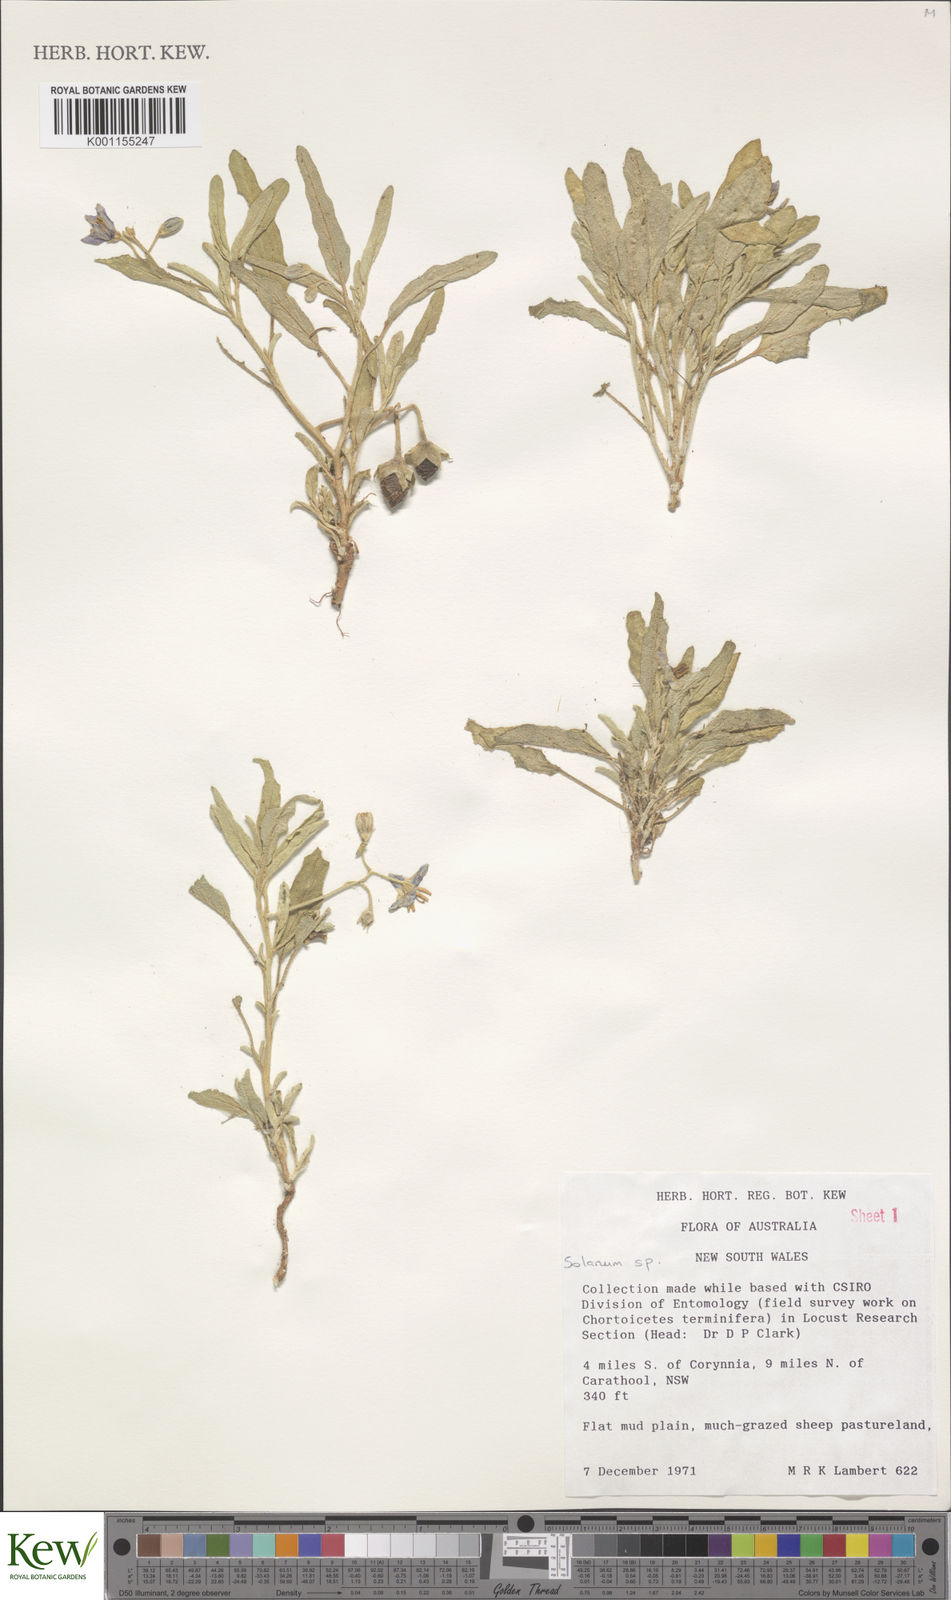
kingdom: Plantae
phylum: Tracheophyta
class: Magnoliopsida
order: Solanales
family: Solanaceae
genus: Solanum
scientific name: Solanum
